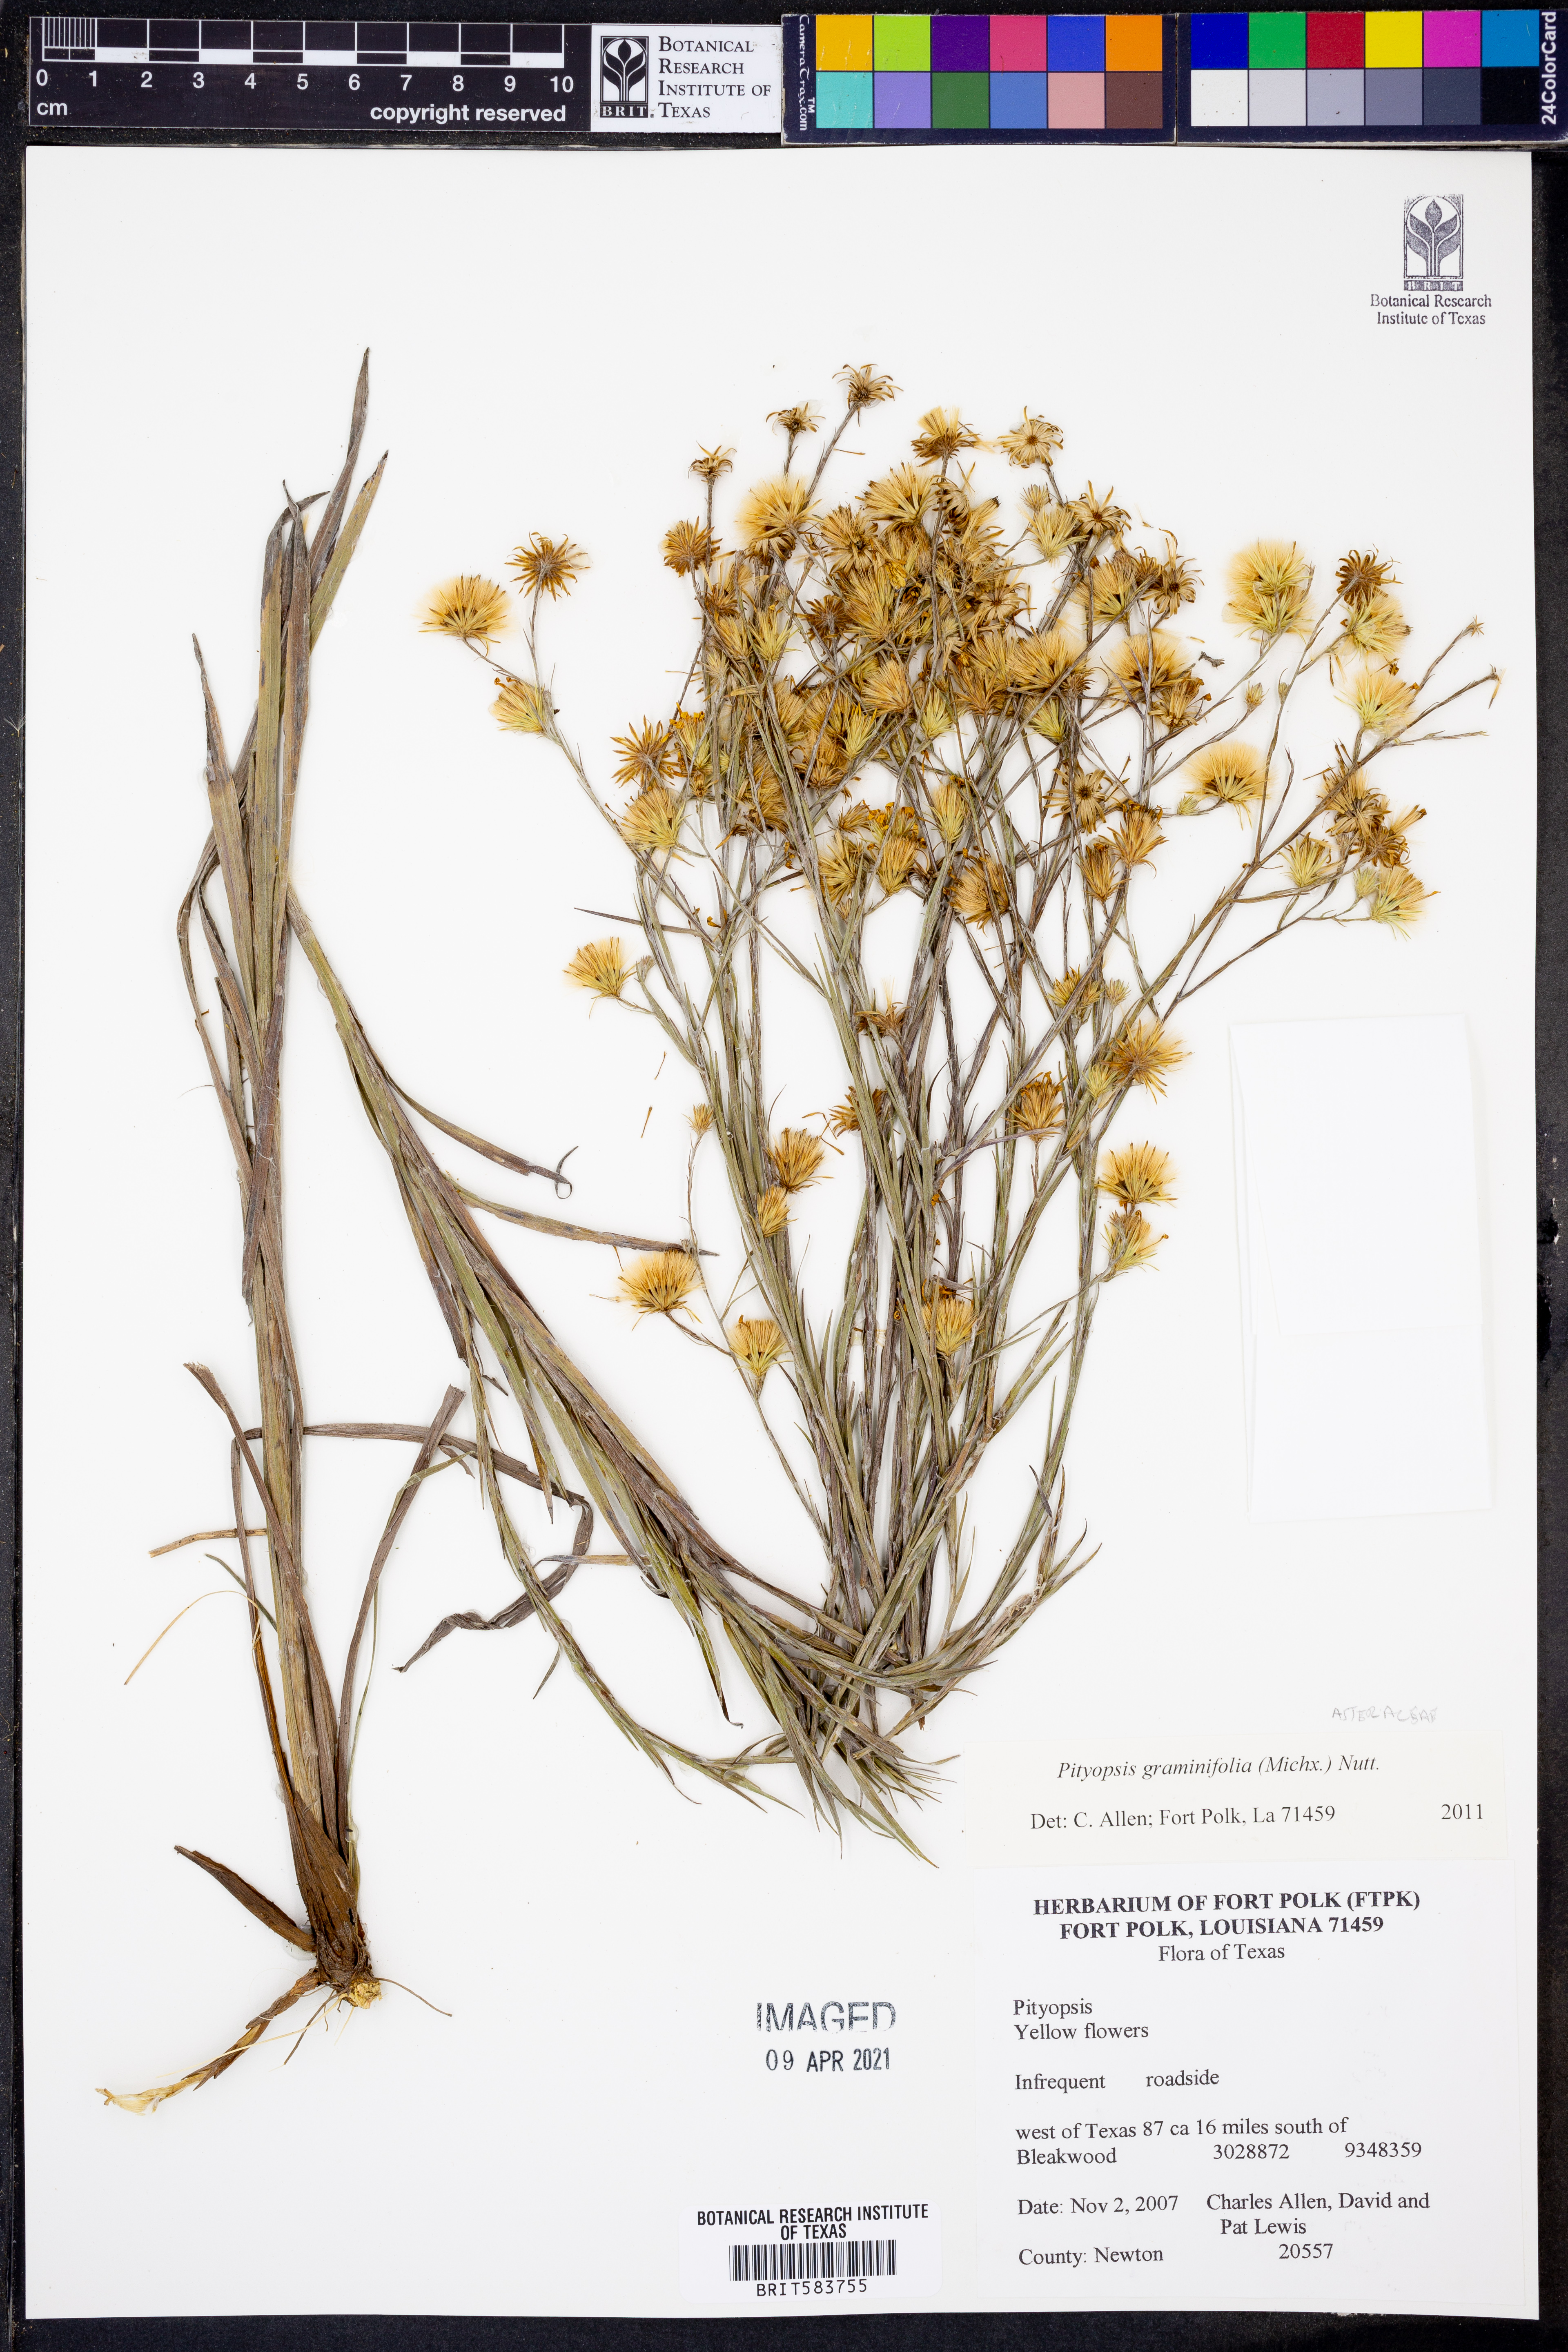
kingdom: Plantae
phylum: Tracheophyta
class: Magnoliopsida
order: Asterales
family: Asteraceae
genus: Pityopsis
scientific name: Pityopsis graminifolia
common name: Grass-leaf golden-aster
